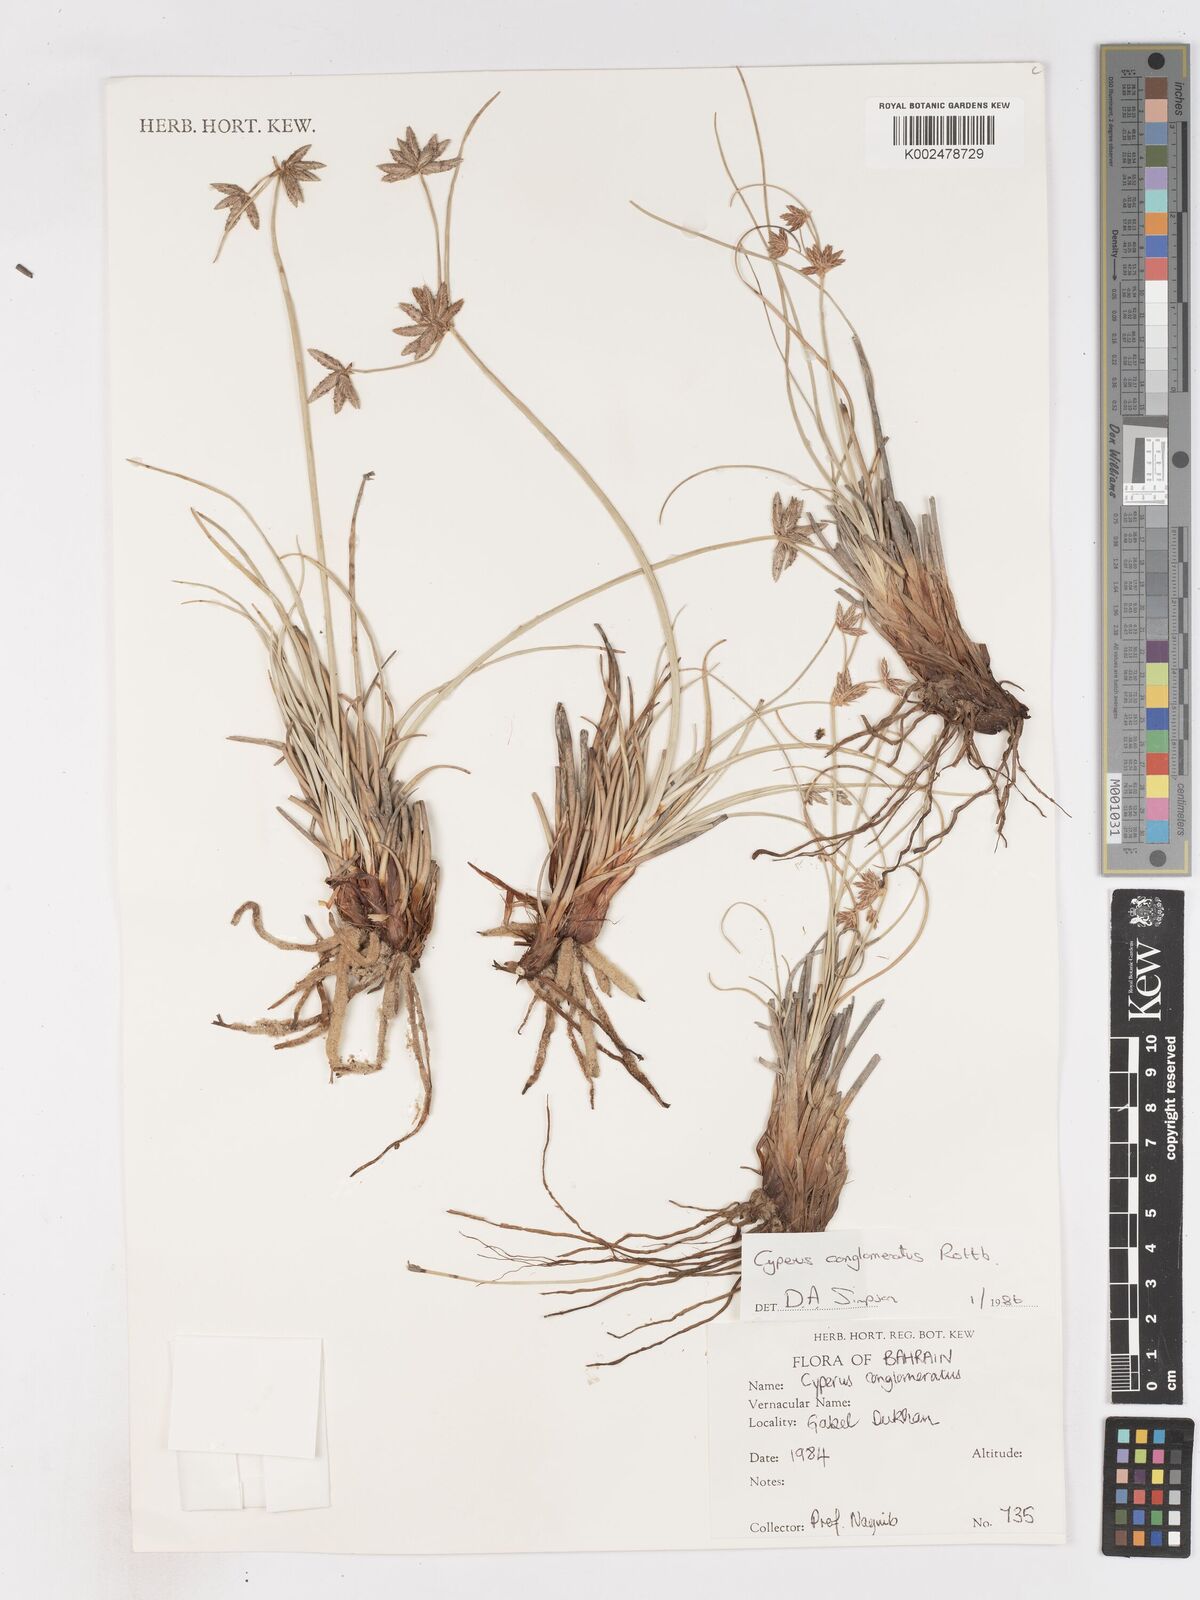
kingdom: Plantae
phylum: Tracheophyta
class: Liliopsida
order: Poales
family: Cyperaceae
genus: Cyperus
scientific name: Cyperus conglomeratus
